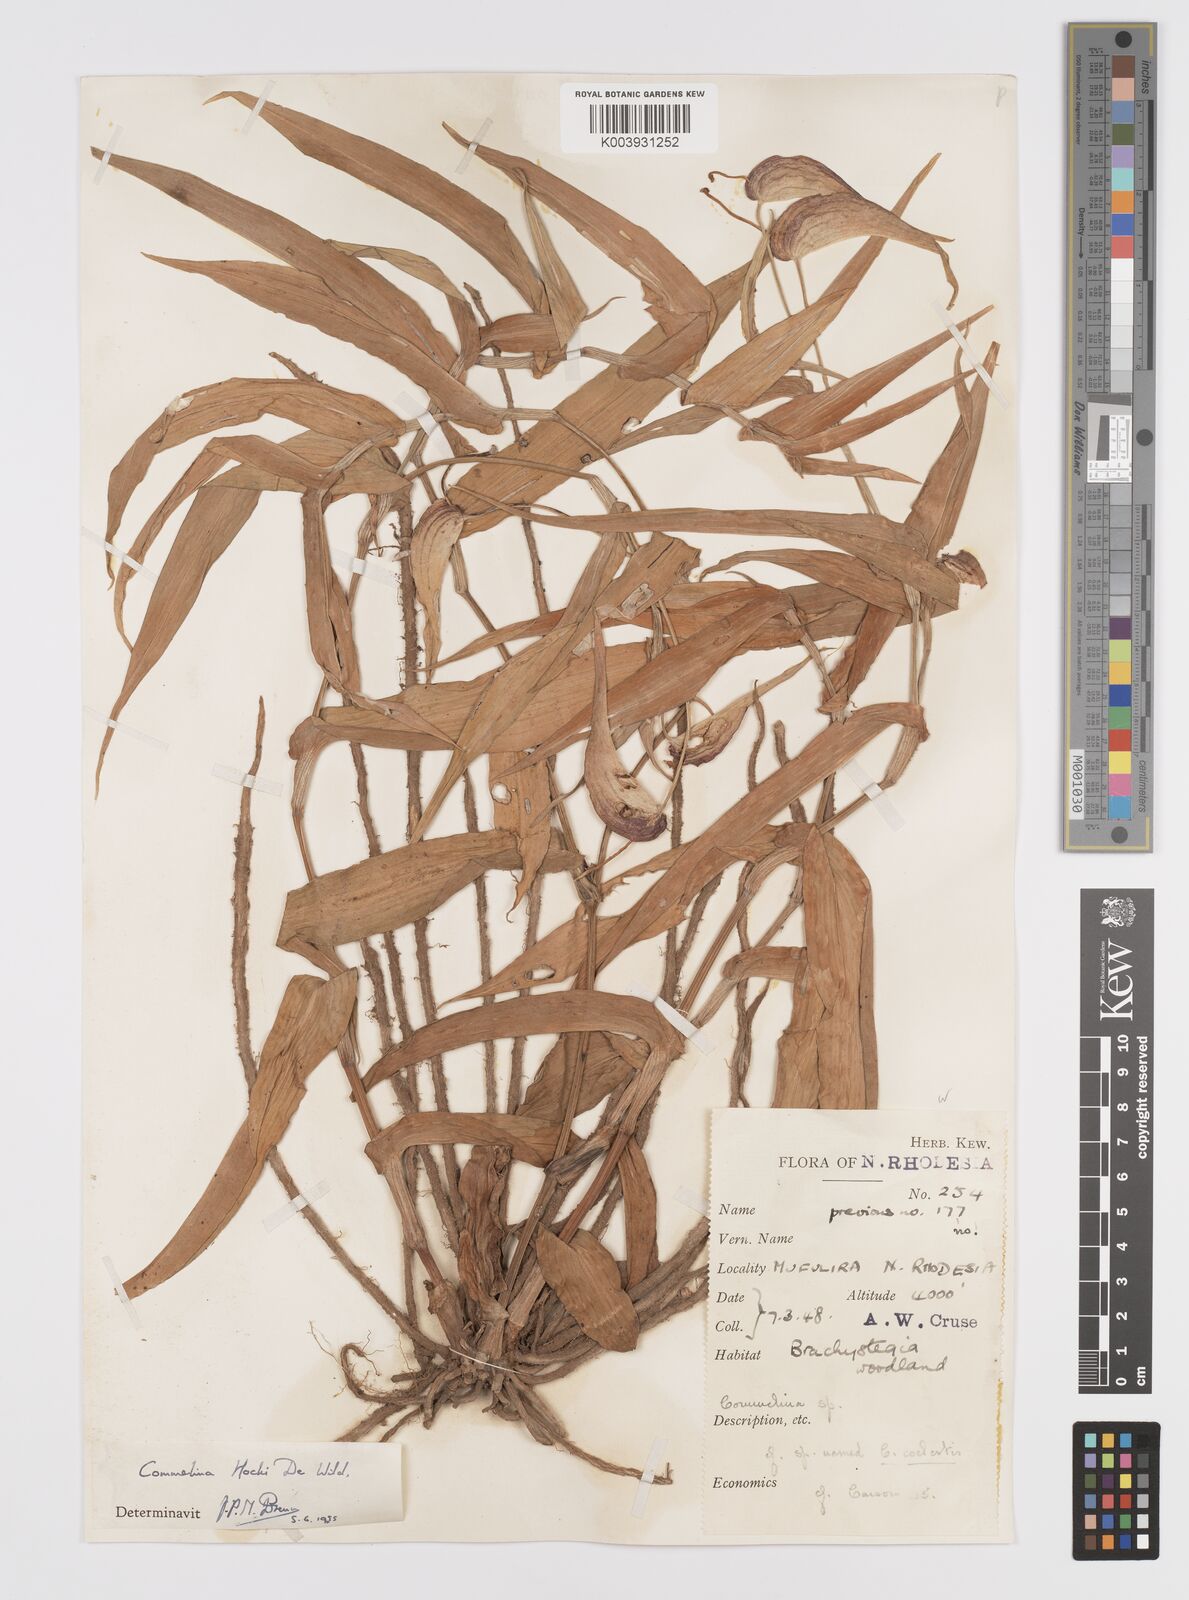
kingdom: Plantae
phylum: Tracheophyta
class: Liliopsida
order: Commelinales
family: Commelinaceae
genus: Commelina
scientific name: Commelina hockii
